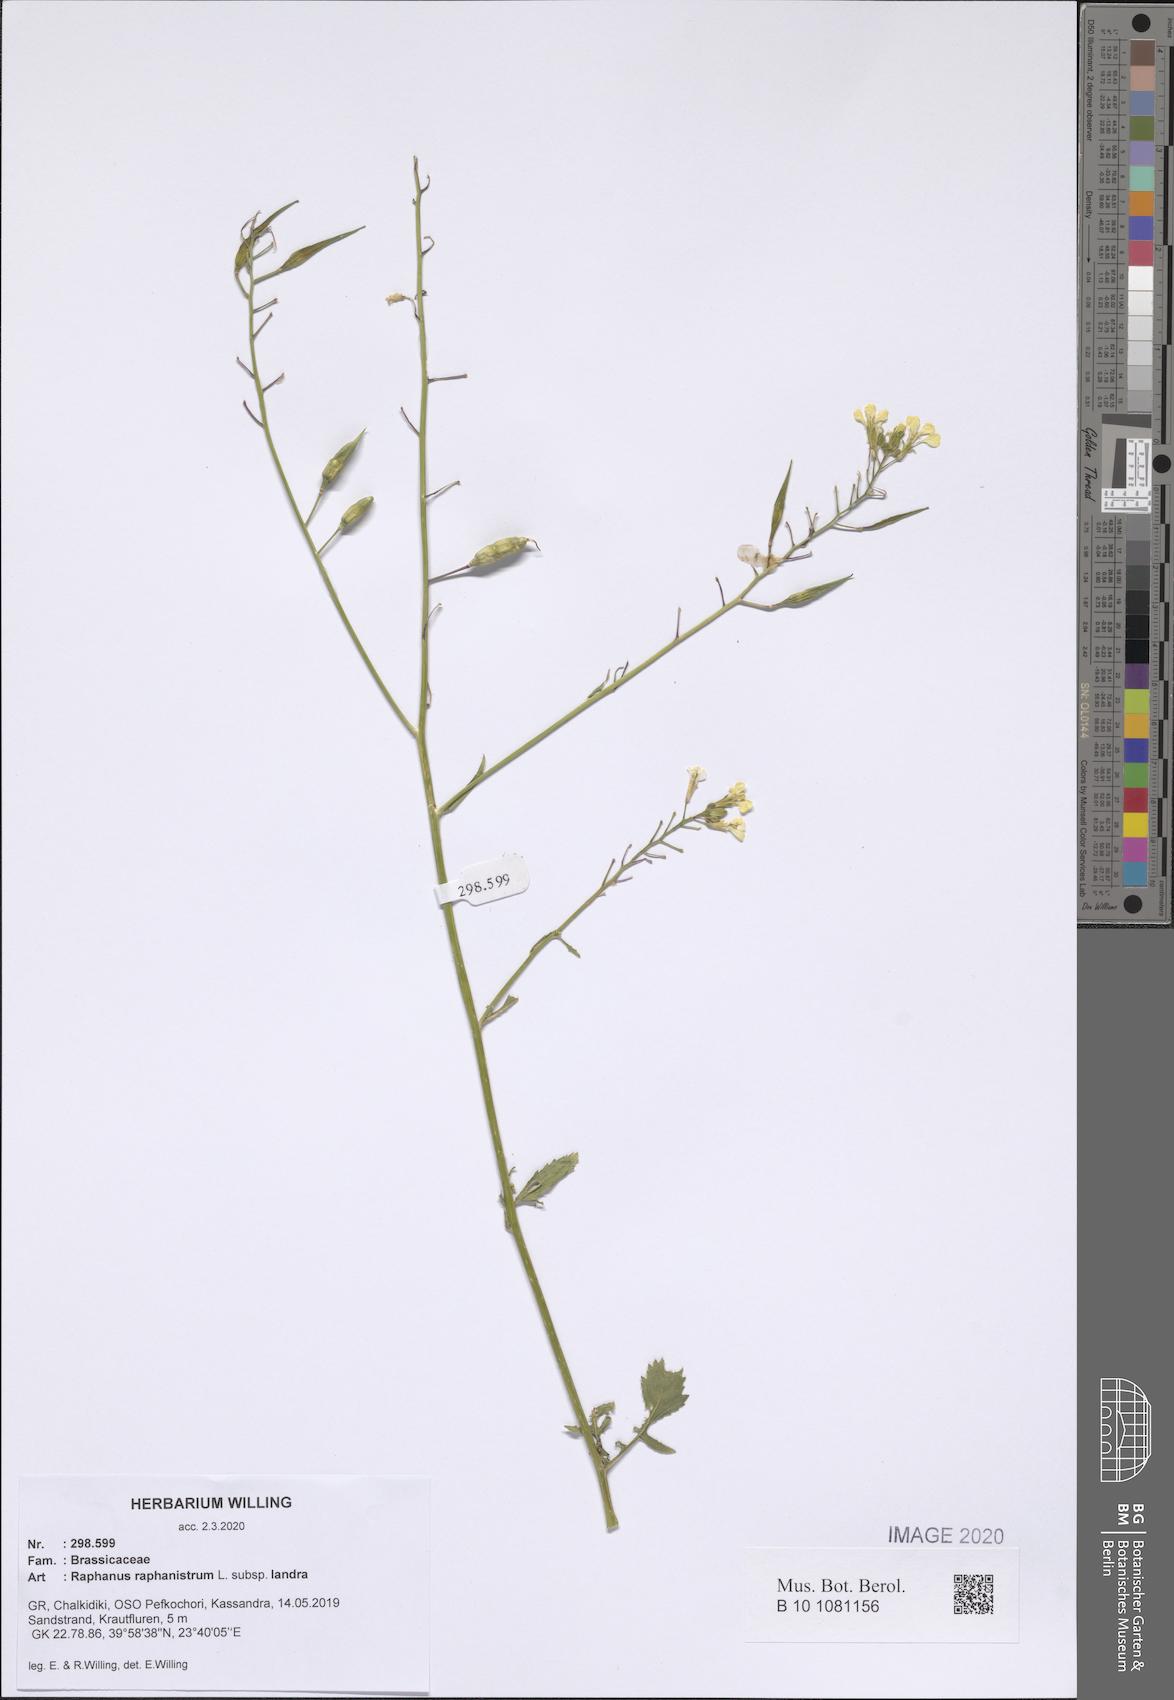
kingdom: Plantae
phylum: Tracheophyta
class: Magnoliopsida
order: Brassicales
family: Brassicaceae
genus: Raphanus
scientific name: Raphanus raphanistrum
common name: Wild radish
